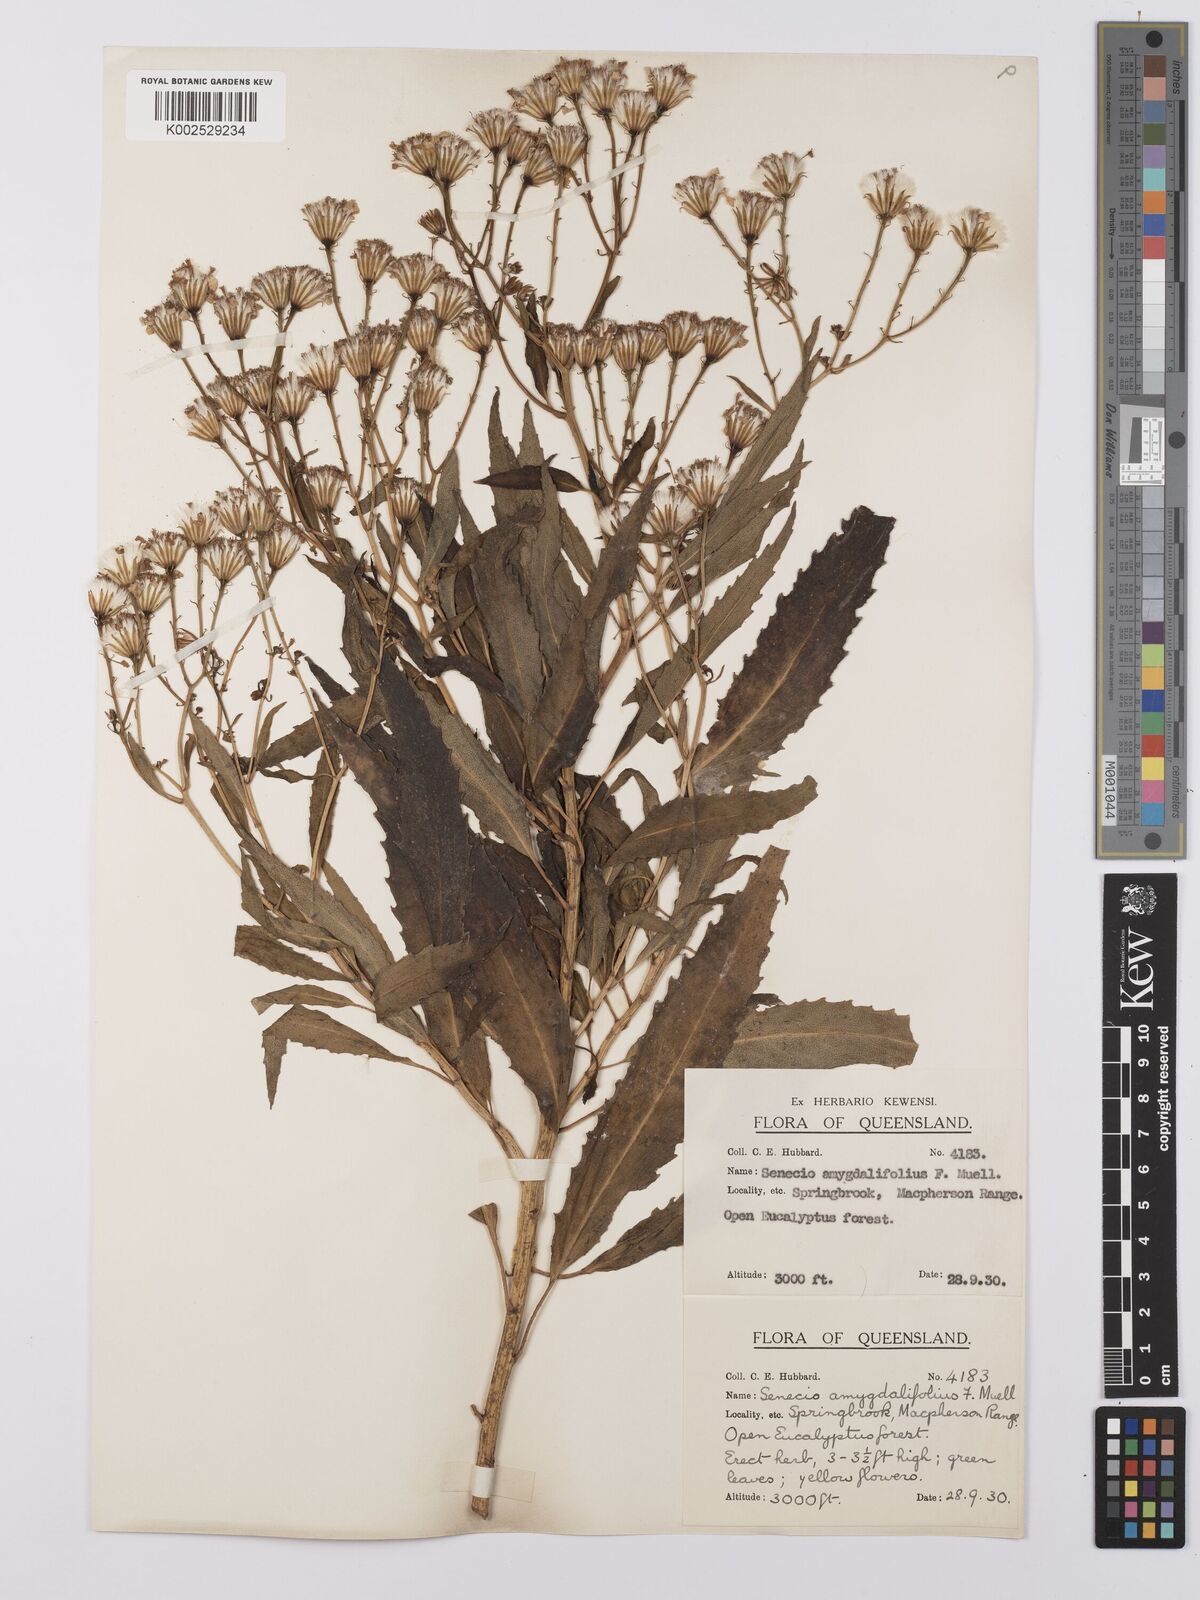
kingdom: Plantae
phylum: Tracheophyta
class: Magnoliopsida
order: Asterales
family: Asteraceae
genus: Lordhowea
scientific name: Lordhowea amygdalifolia
